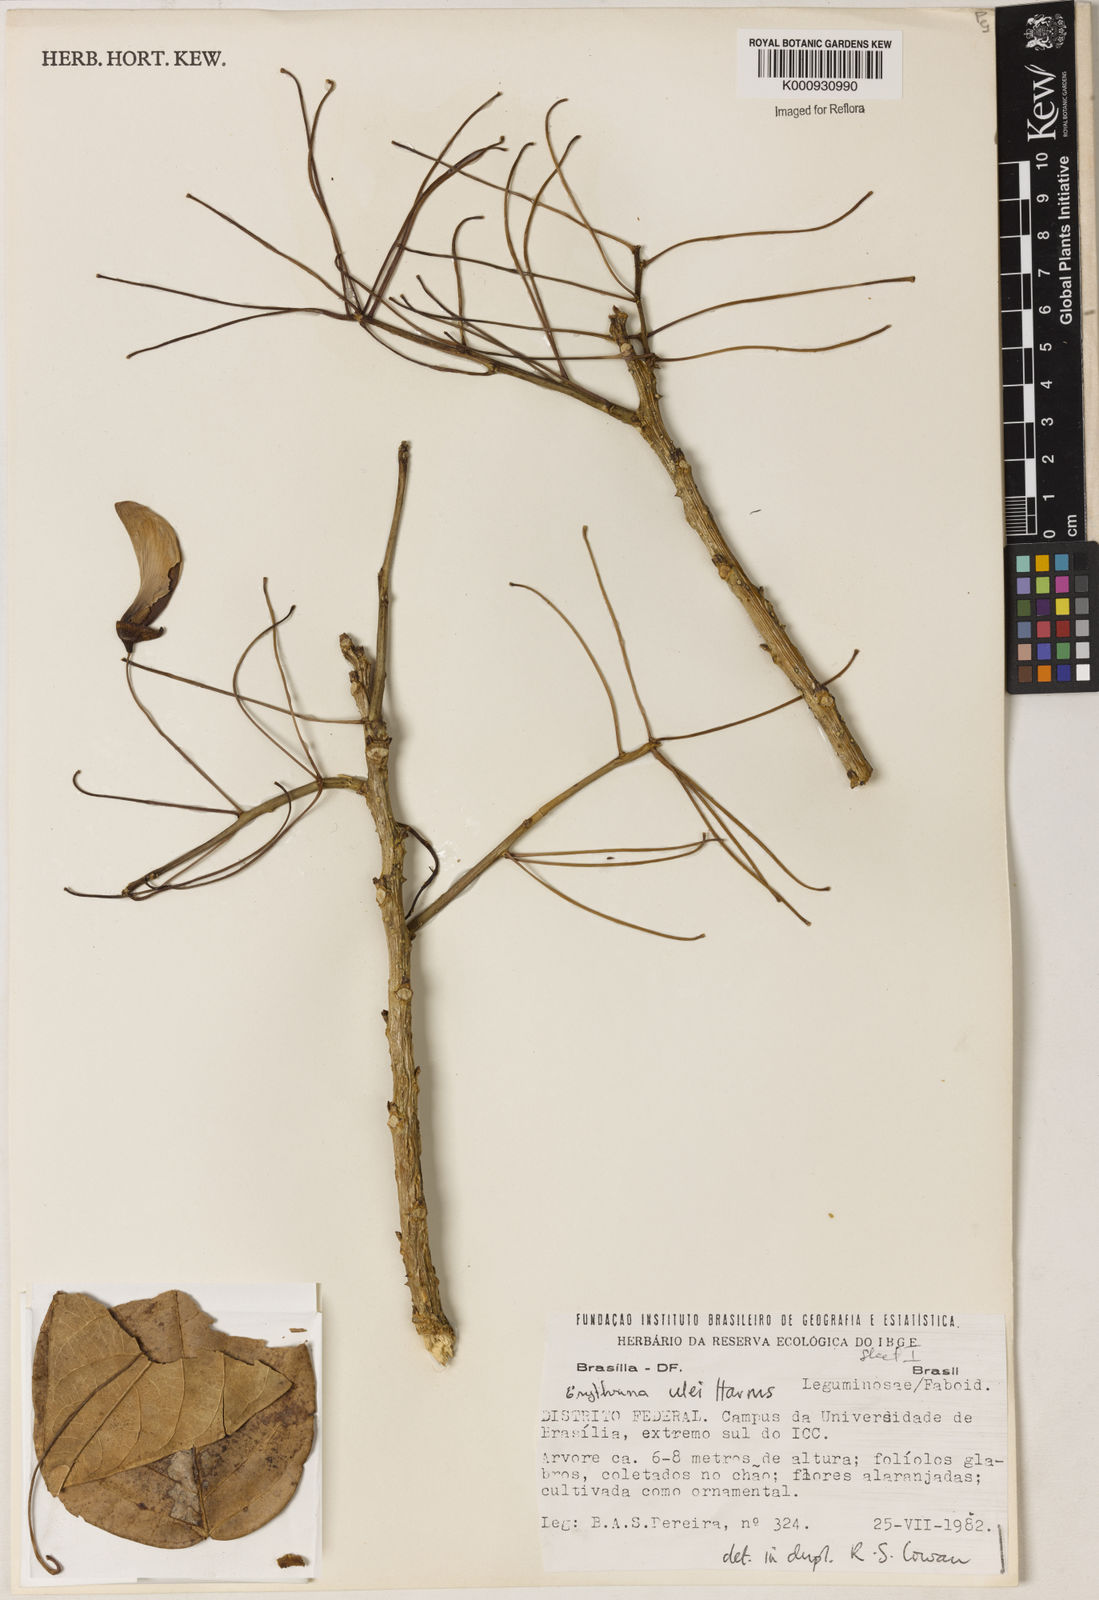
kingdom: Plantae
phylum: Tracheophyta
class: Magnoliopsida
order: Fabales
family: Fabaceae
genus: Erythrina
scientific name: Erythrina ulei
